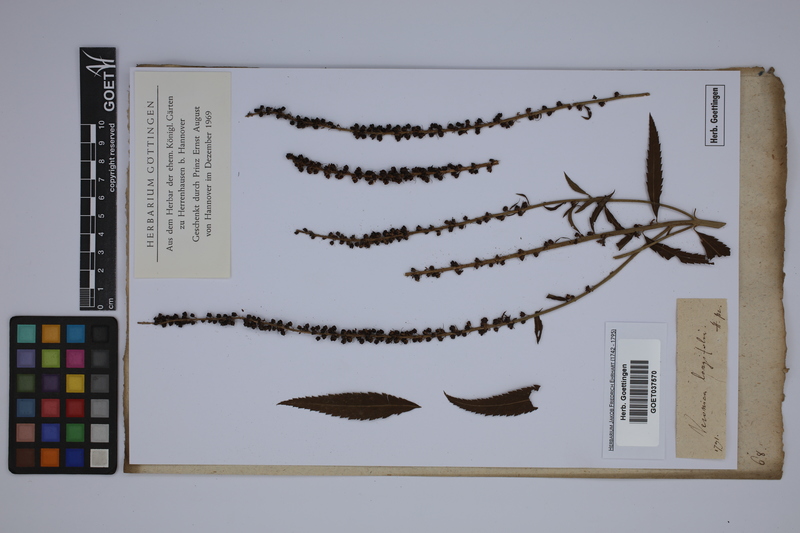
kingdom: Plantae
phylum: Tracheophyta
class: Magnoliopsida
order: Lamiales
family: Plantaginaceae
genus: Veronica
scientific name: Veronica longifolia
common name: Garden speedwell
